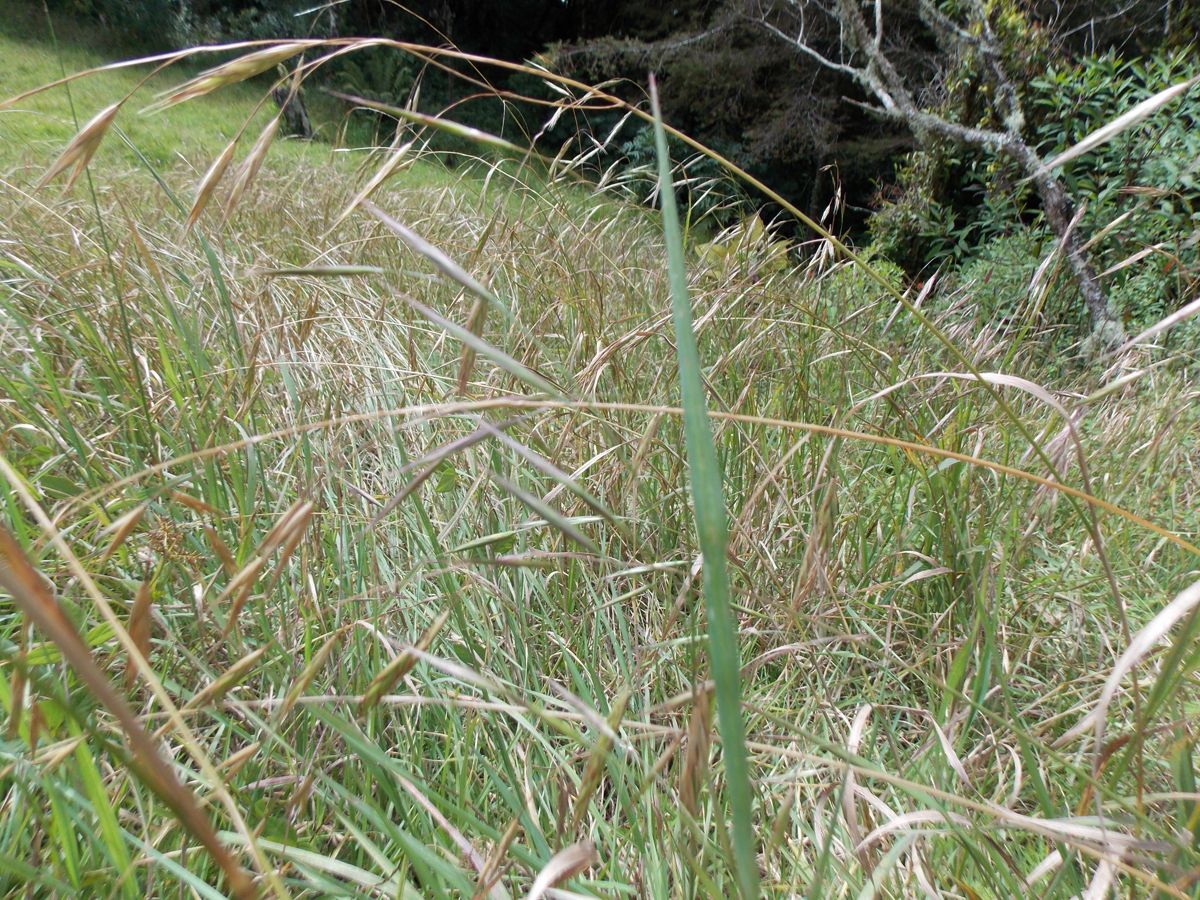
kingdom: Plantae
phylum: Tracheophyta
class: Liliopsida
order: Poales
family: Poaceae
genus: Bromus
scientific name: Bromus carinatus
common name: Mountain brome
